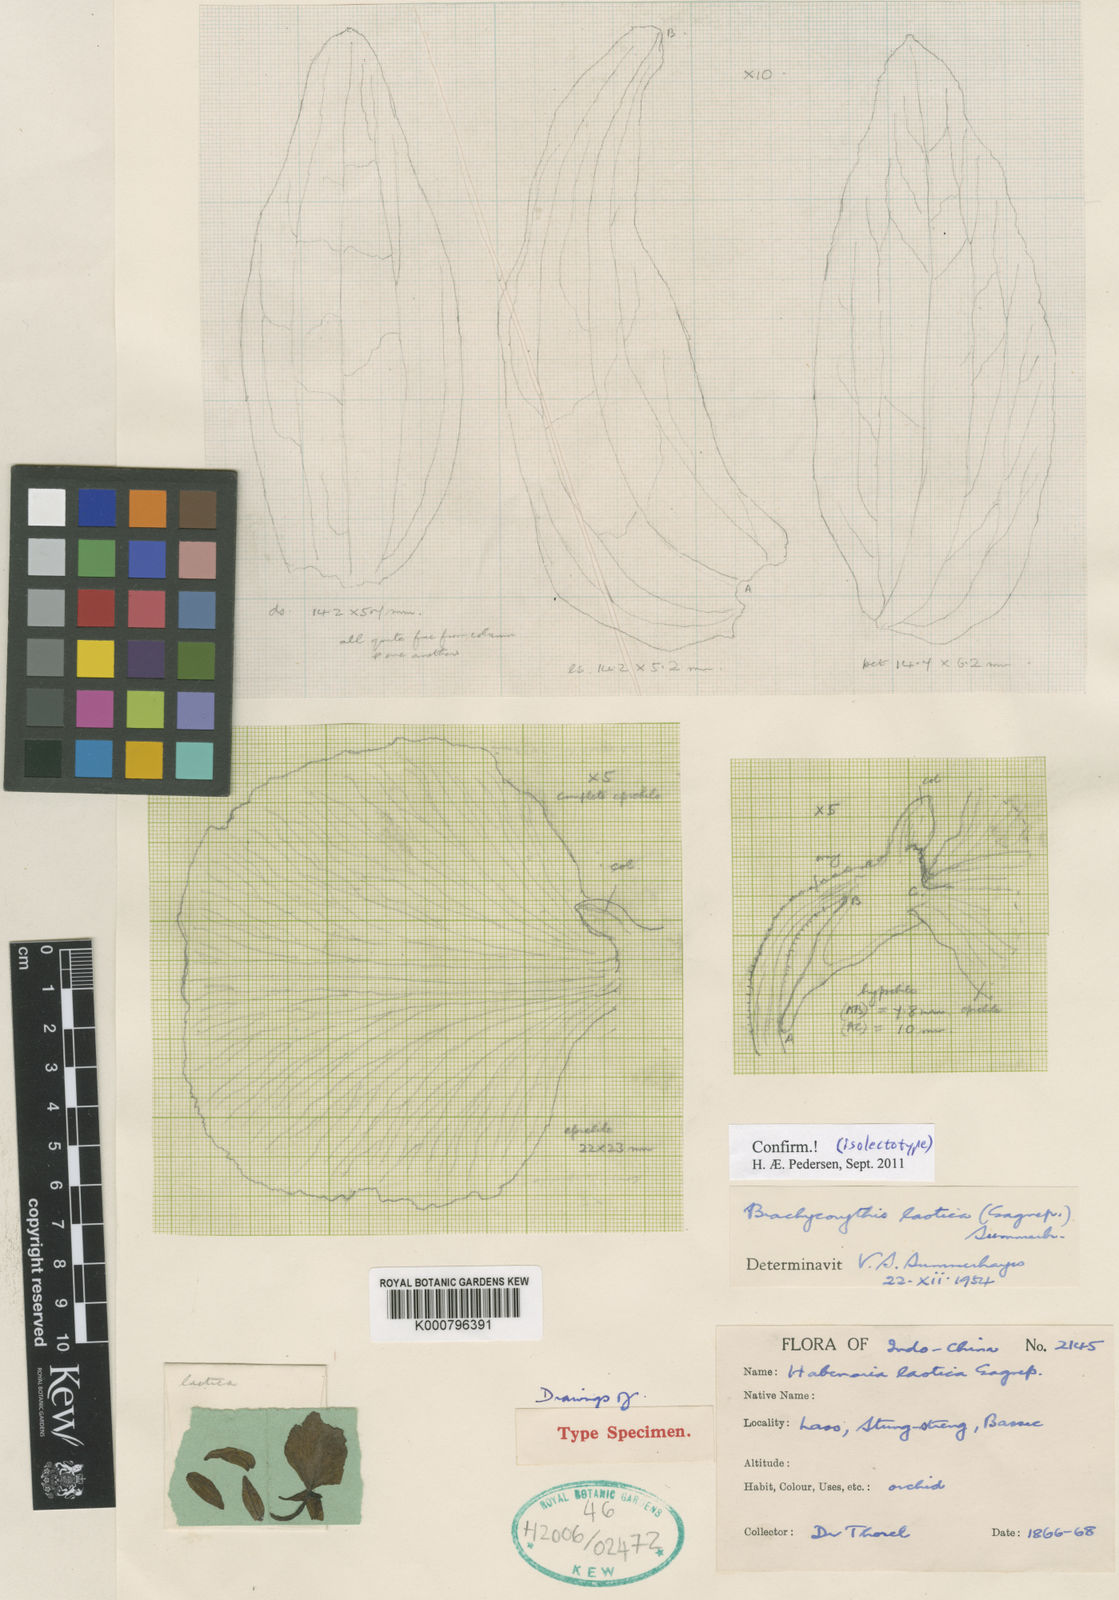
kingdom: Plantae
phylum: Tracheophyta
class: Liliopsida
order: Asparagales
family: Orchidaceae
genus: Brachycorythis
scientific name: Brachycorythis acuta
